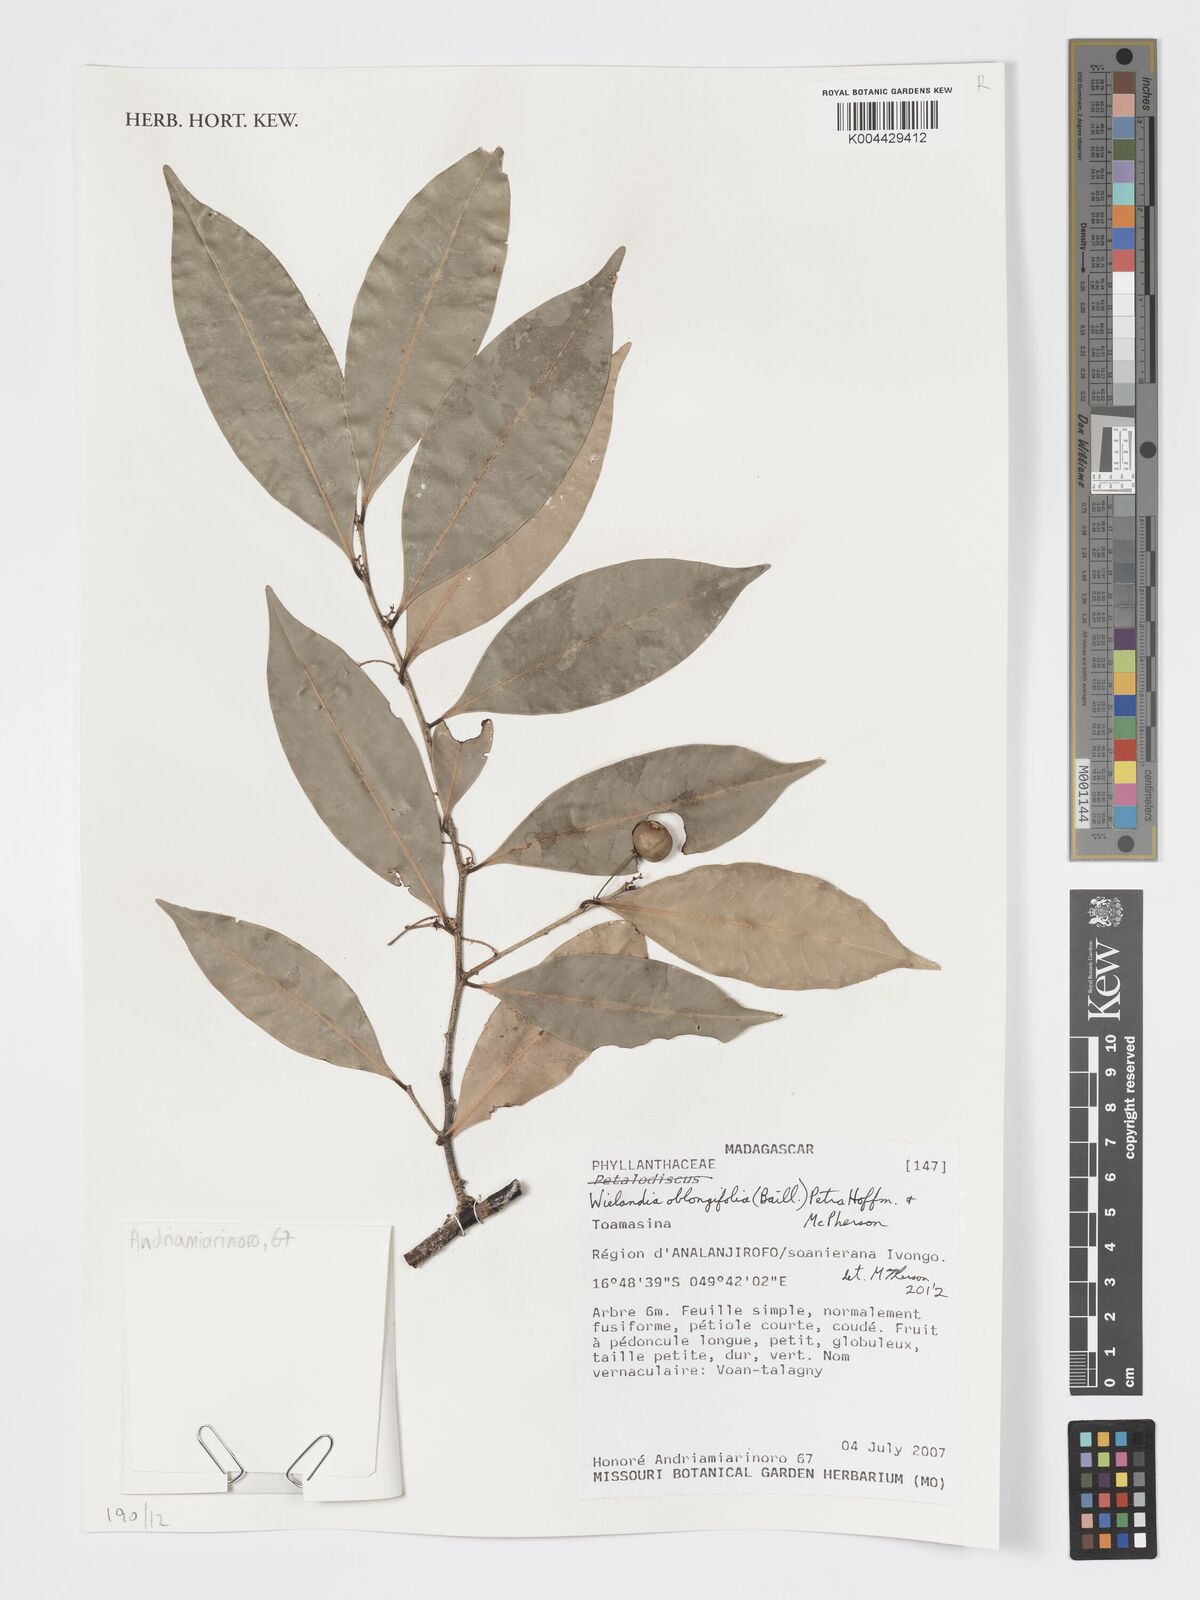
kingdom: Plantae
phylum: Tracheophyta
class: Magnoliopsida
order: Malpighiales
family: Phyllanthaceae
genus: Wielandia
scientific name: Wielandia oblongifolia
